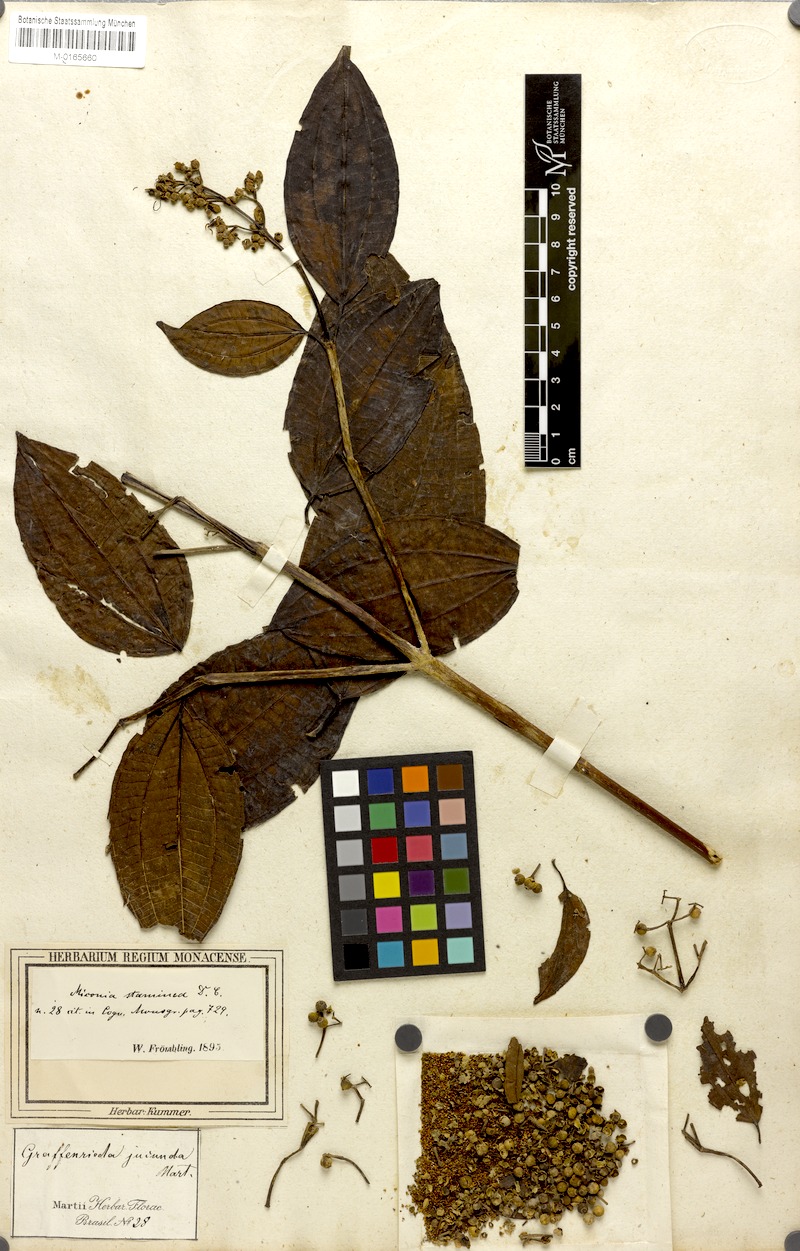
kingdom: Plantae
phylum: Tracheophyta
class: Magnoliopsida
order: Myrtales
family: Melastomataceae
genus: Miconia
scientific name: Miconia staminea
